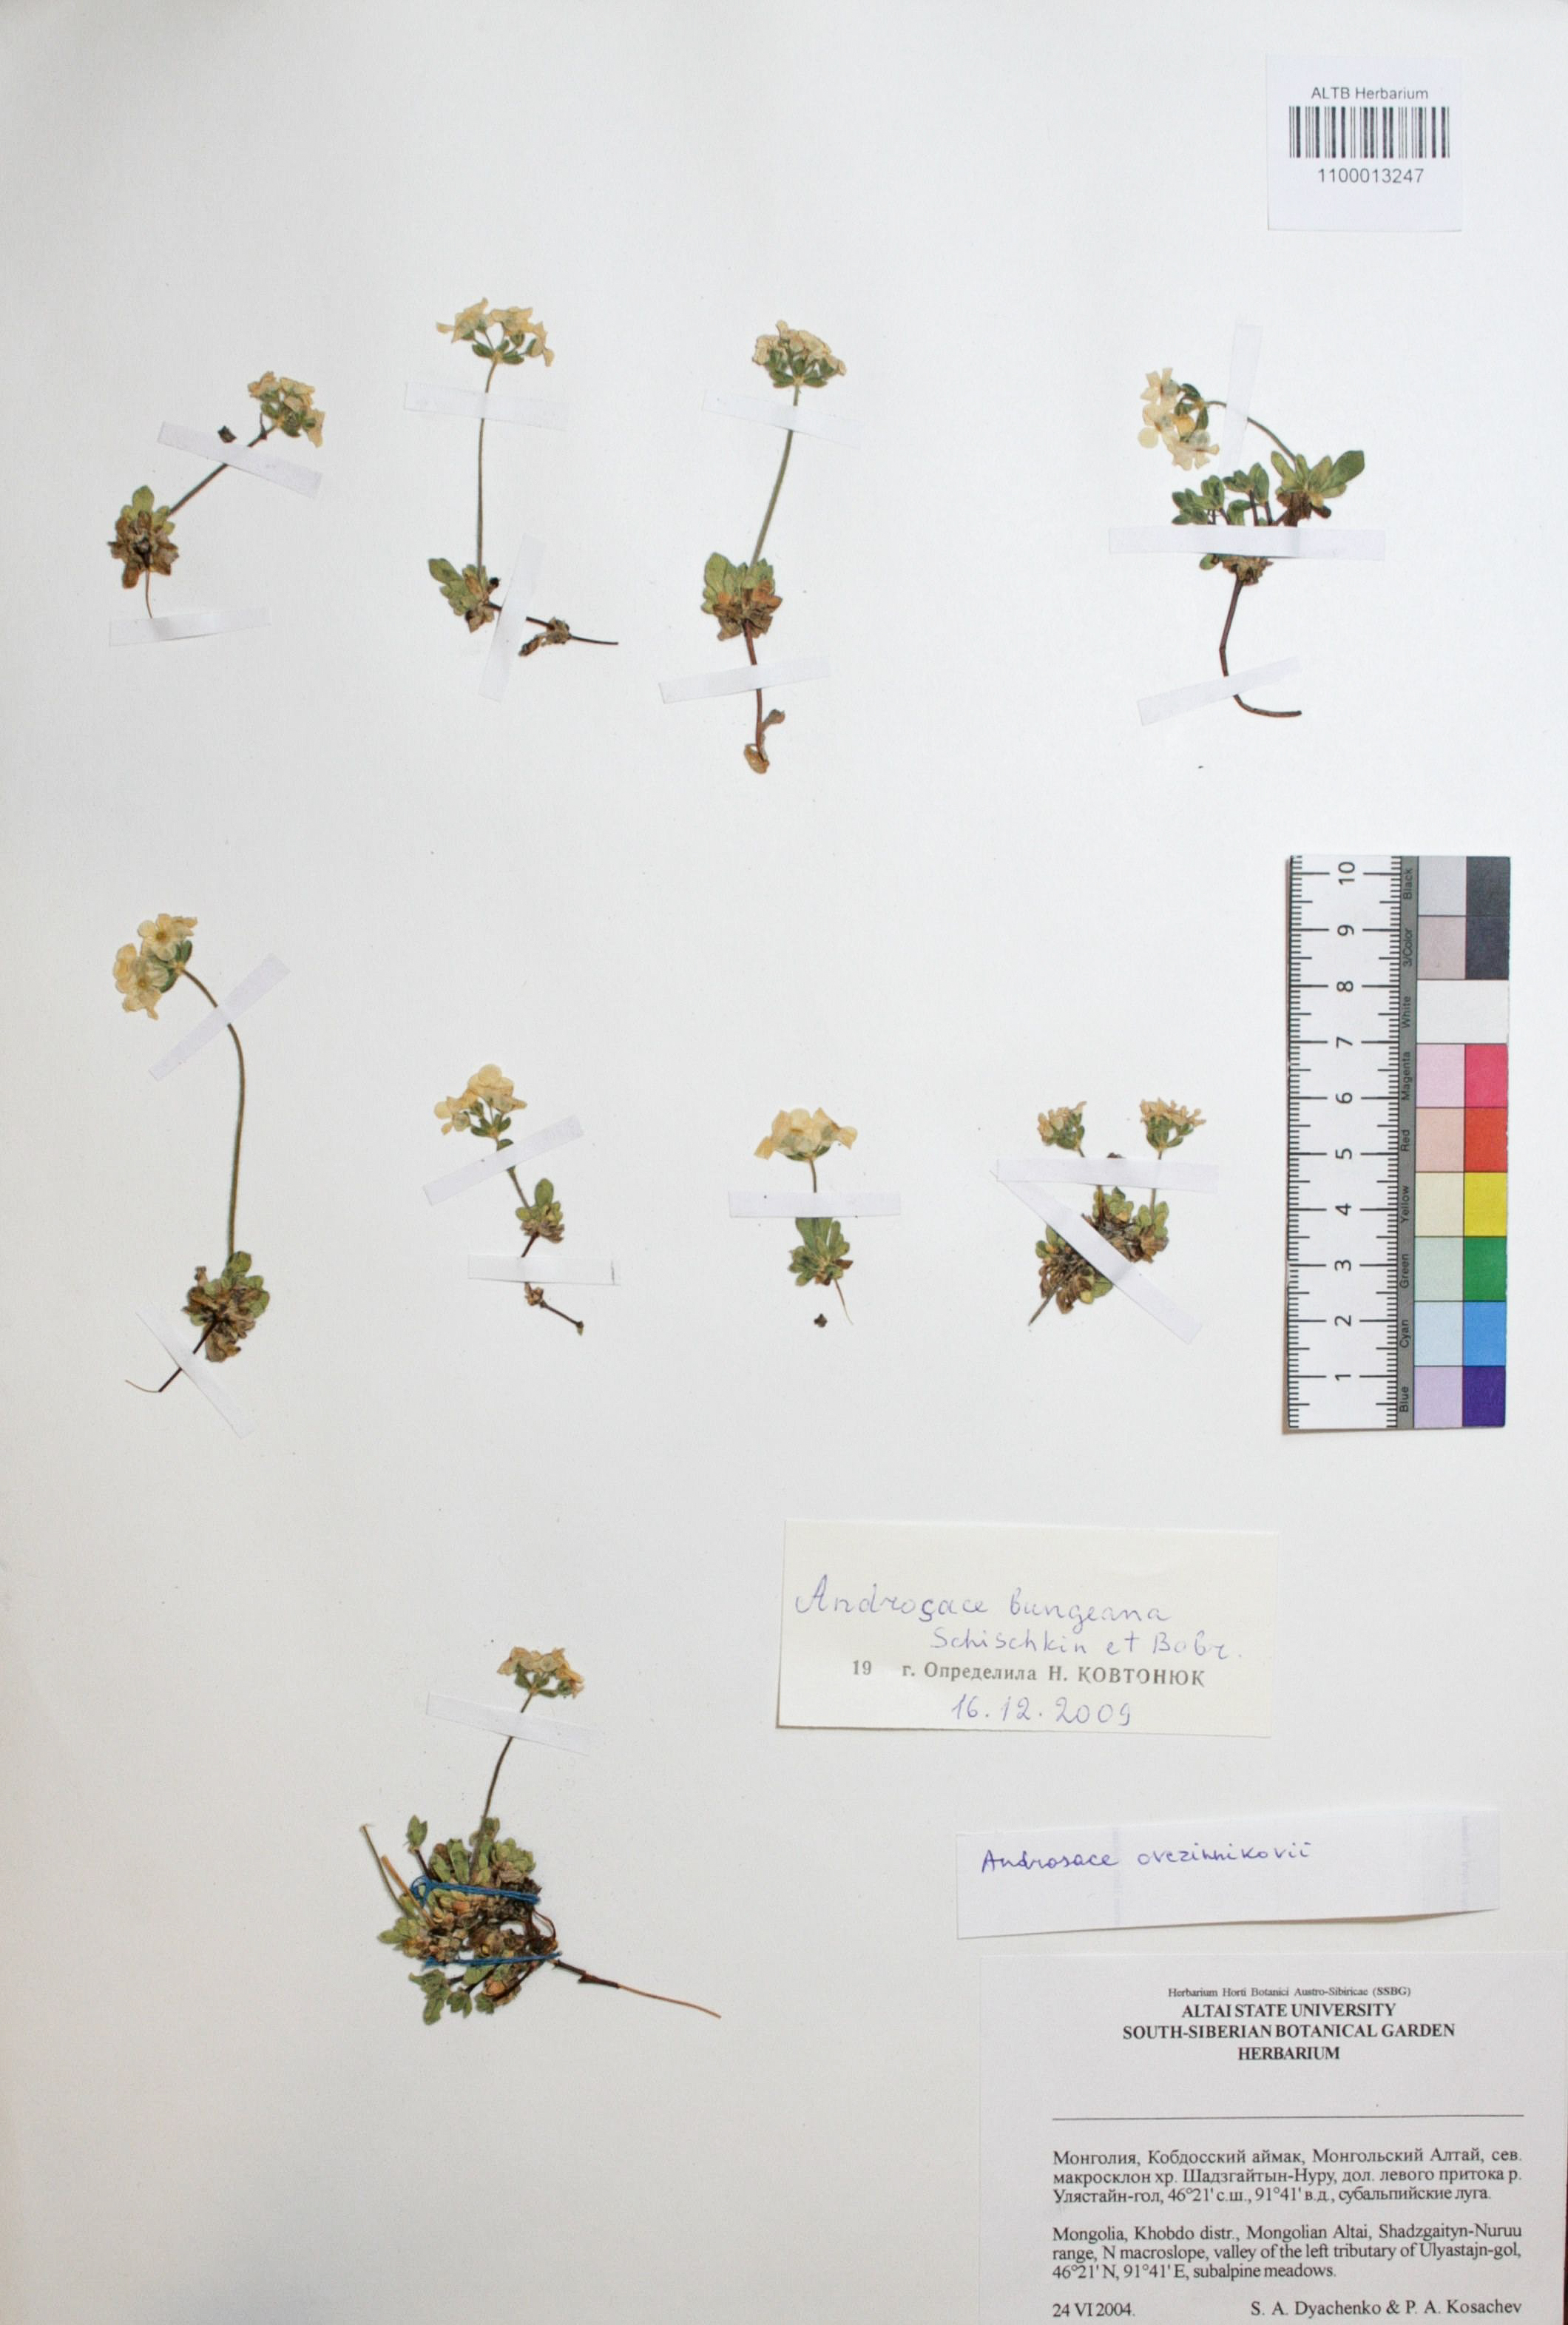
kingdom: Plantae
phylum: Tracheophyta
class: Magnoliopsida
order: Ericales
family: Primulaceae
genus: Androsace
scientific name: Androsace bungeana
